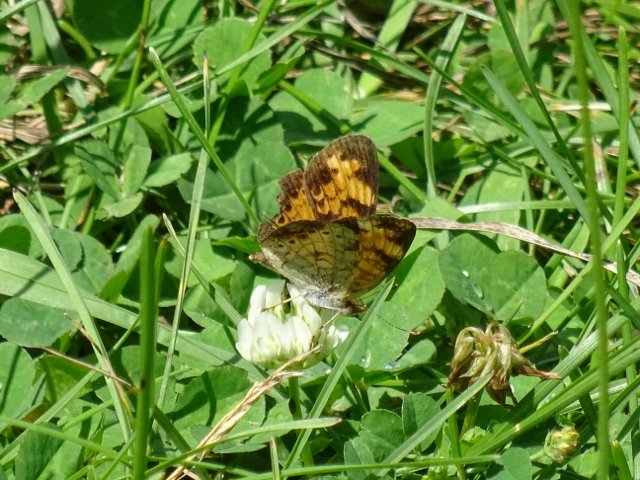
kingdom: Animalia
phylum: Arthropoda
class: Insecta
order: Lepidoptera
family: Nymphalidae
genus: Phyciodes
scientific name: Phyciodes tharos
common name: Northern Crescent
